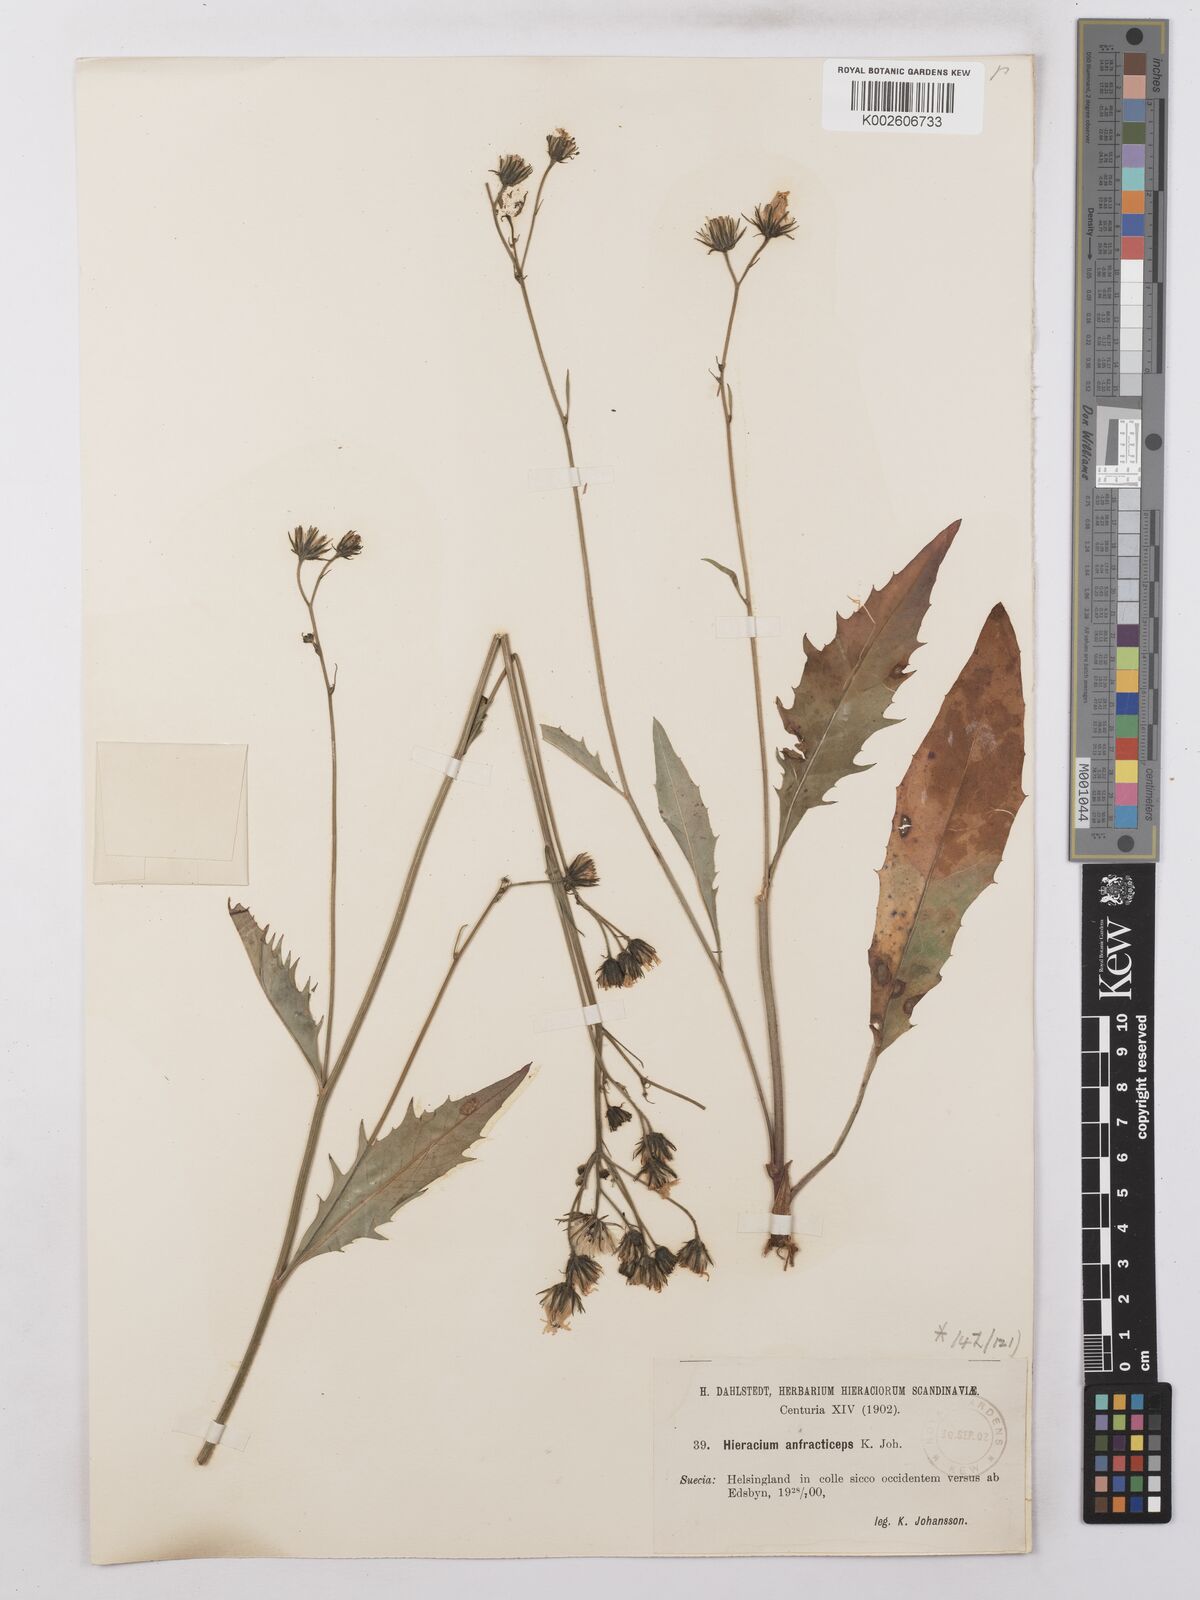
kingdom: Plantae
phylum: Tracheophyta
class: Magnoliopsida
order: Asterales
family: Asteraceae
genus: Hieracium
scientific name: Hieracium lachenalii
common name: Common hawkweed
